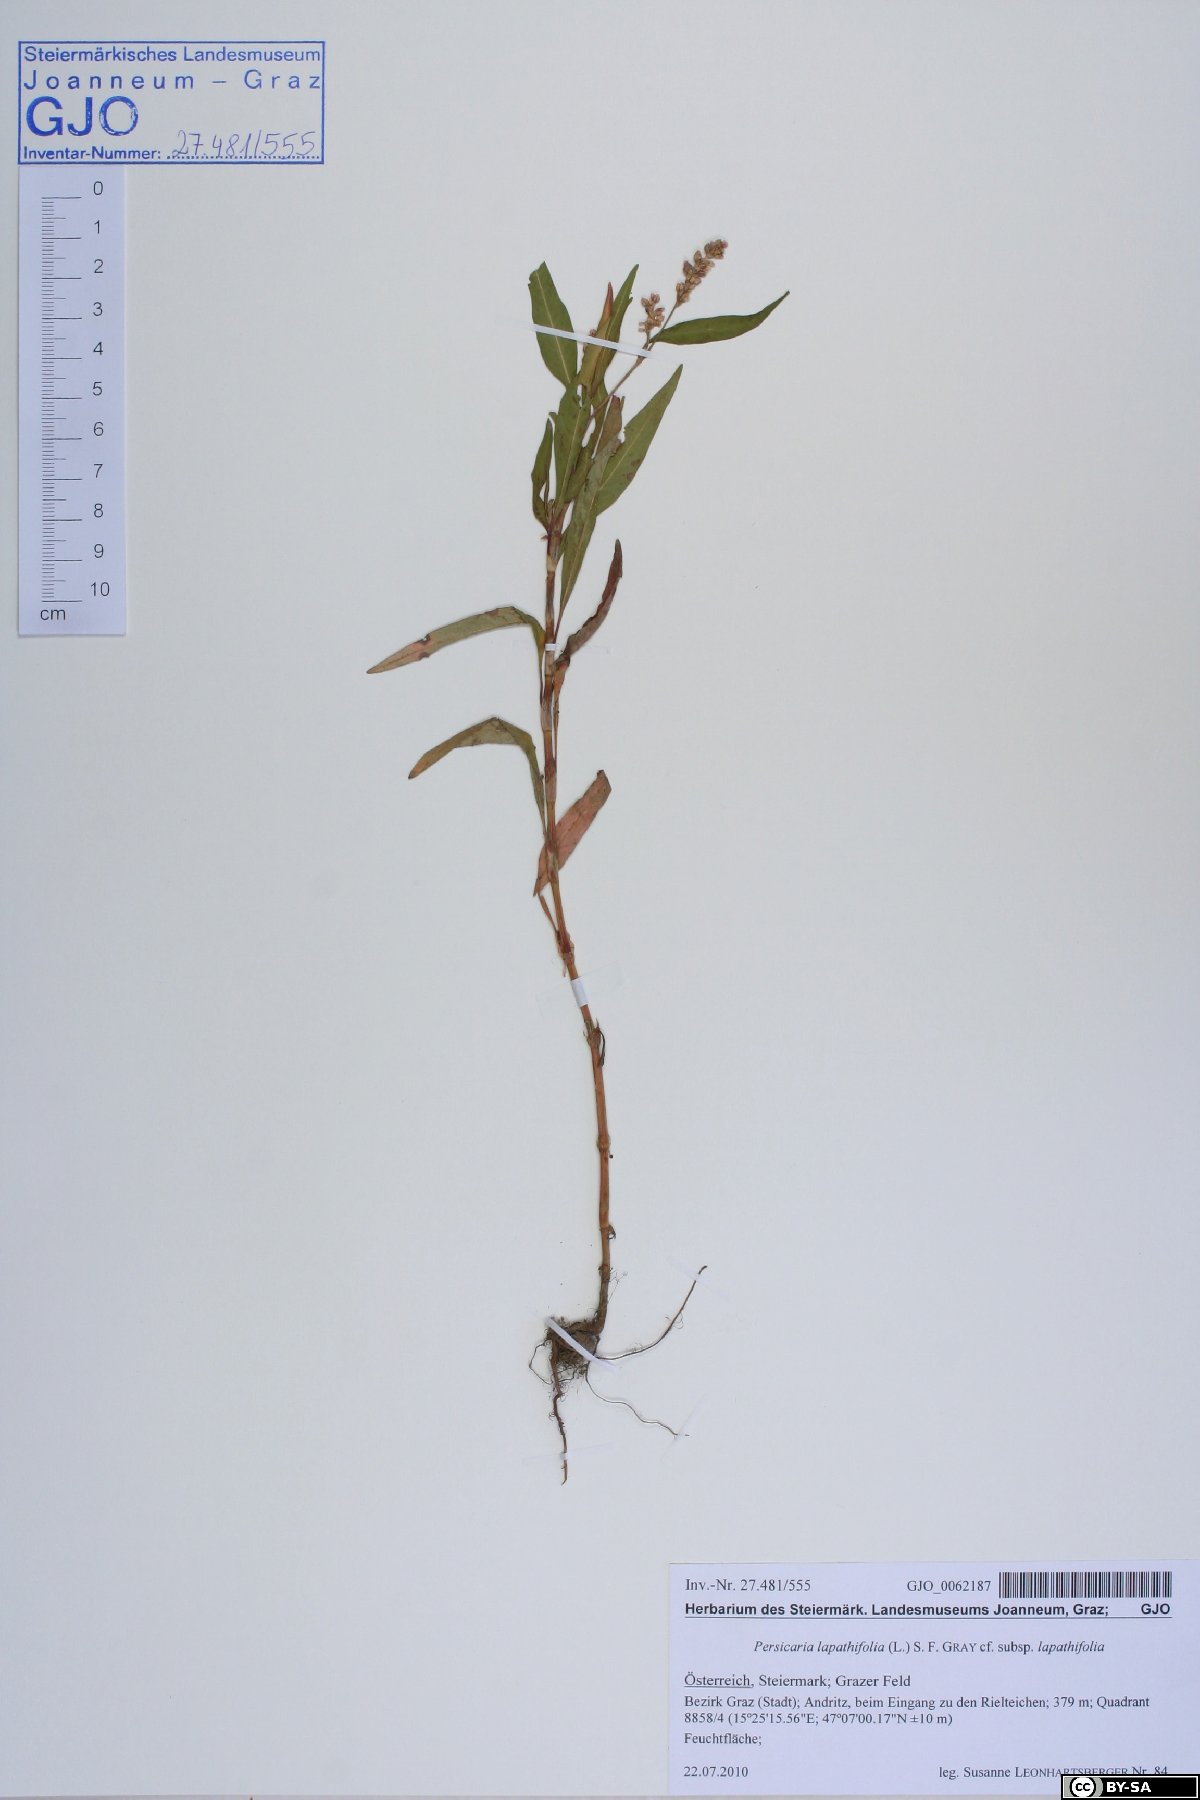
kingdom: Plantae
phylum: Tracheophyta
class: Magnoliopsida
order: Caryophyllales
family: Polygonaceae
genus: Persicaria
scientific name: Persicaria lapathifolia
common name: Curlytop knotweed
